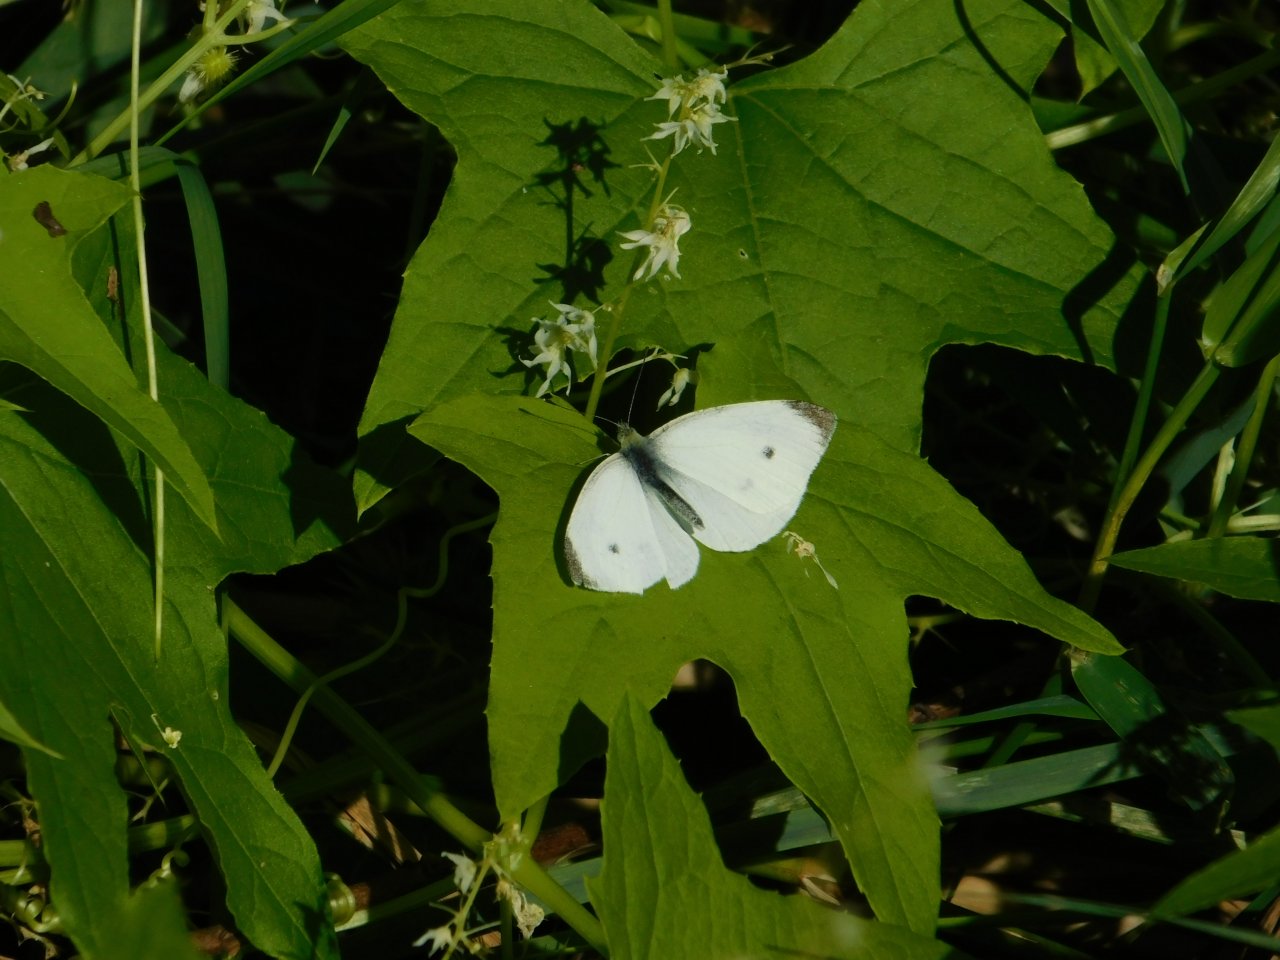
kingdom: Animalia
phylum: Arthropoda
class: Insecta
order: Lepidoptera
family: Pieridae
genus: Pieris
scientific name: Pieris rapae
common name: Cabbage White
